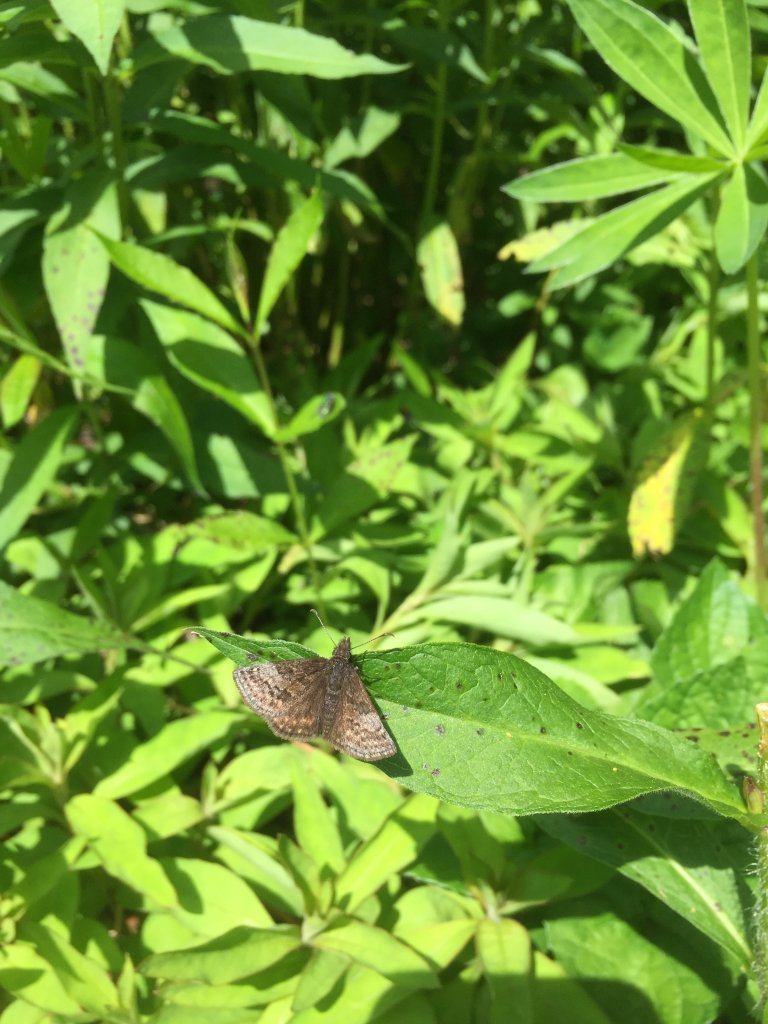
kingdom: Animalia
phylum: Arthropoda
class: Insecta
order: Lepidoptera
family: Hesperiidae
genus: Erynnis
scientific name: Erynnis icelus
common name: Dreamy Duskywing
